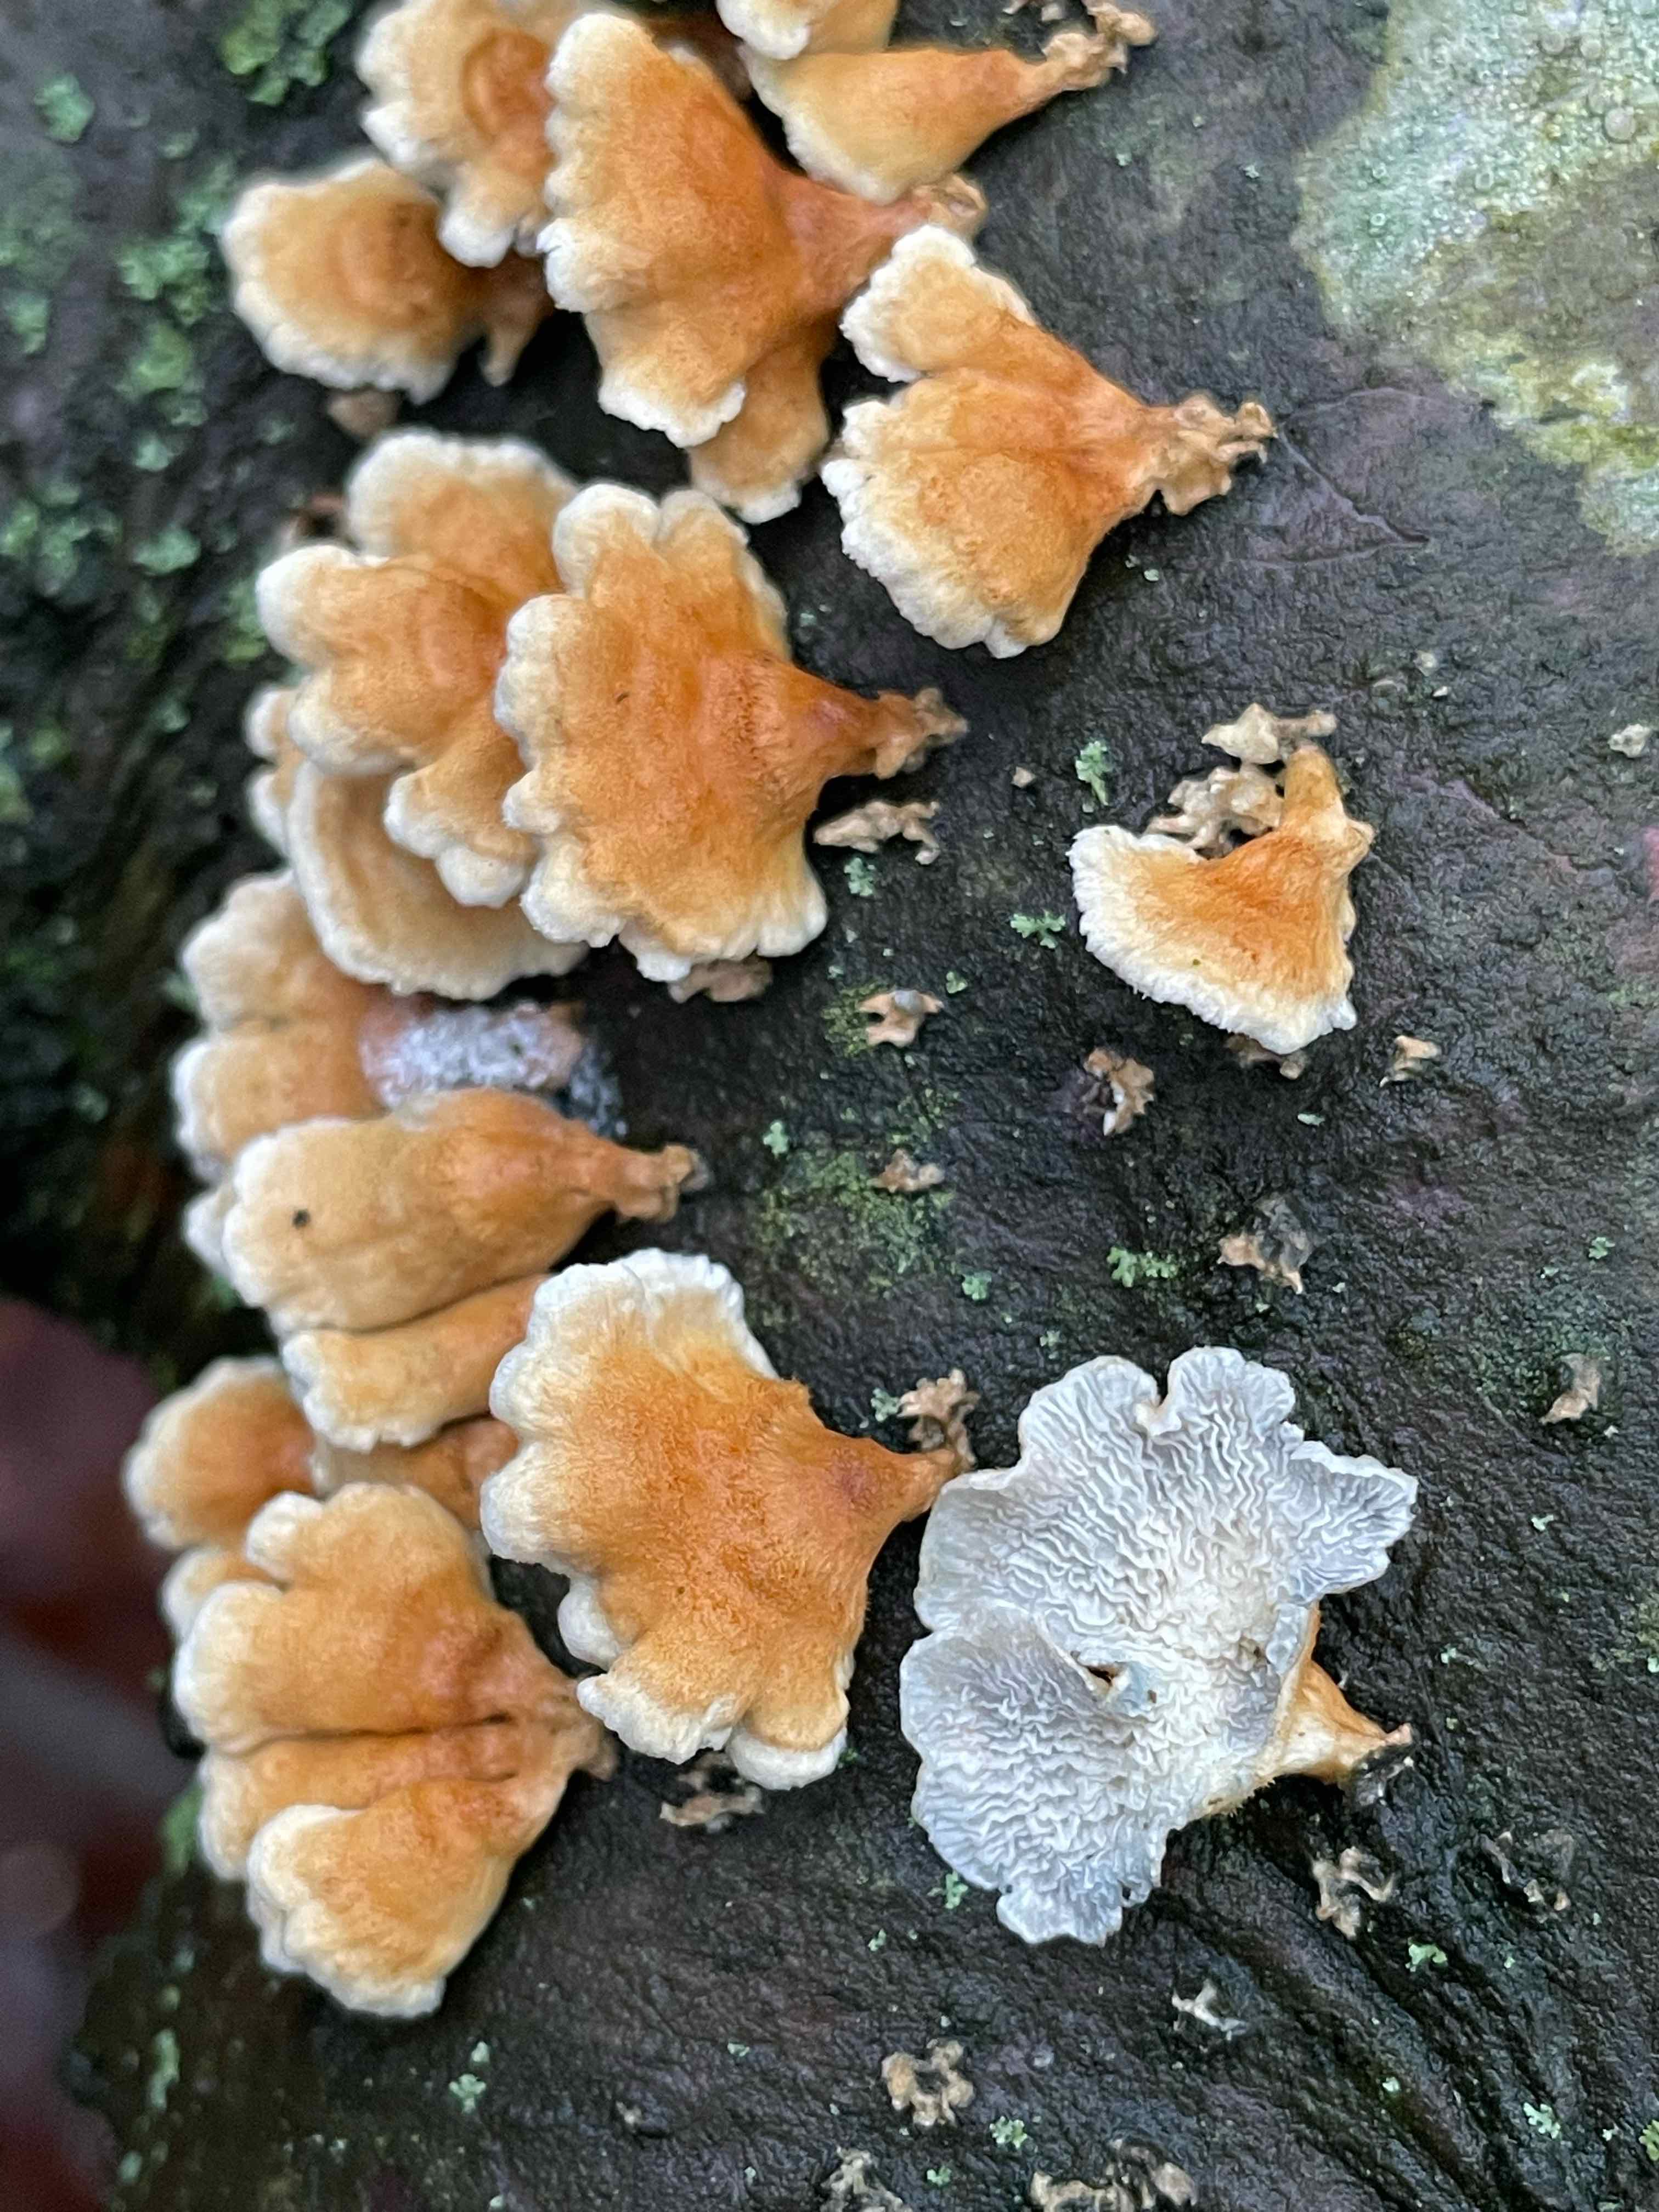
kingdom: Fungi
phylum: Basidiomycota
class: Agaricomycetes
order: Amylocorticiales
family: Amylocorticiaceae
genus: Plicaturopsis
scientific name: Plicaturopsis crispa
